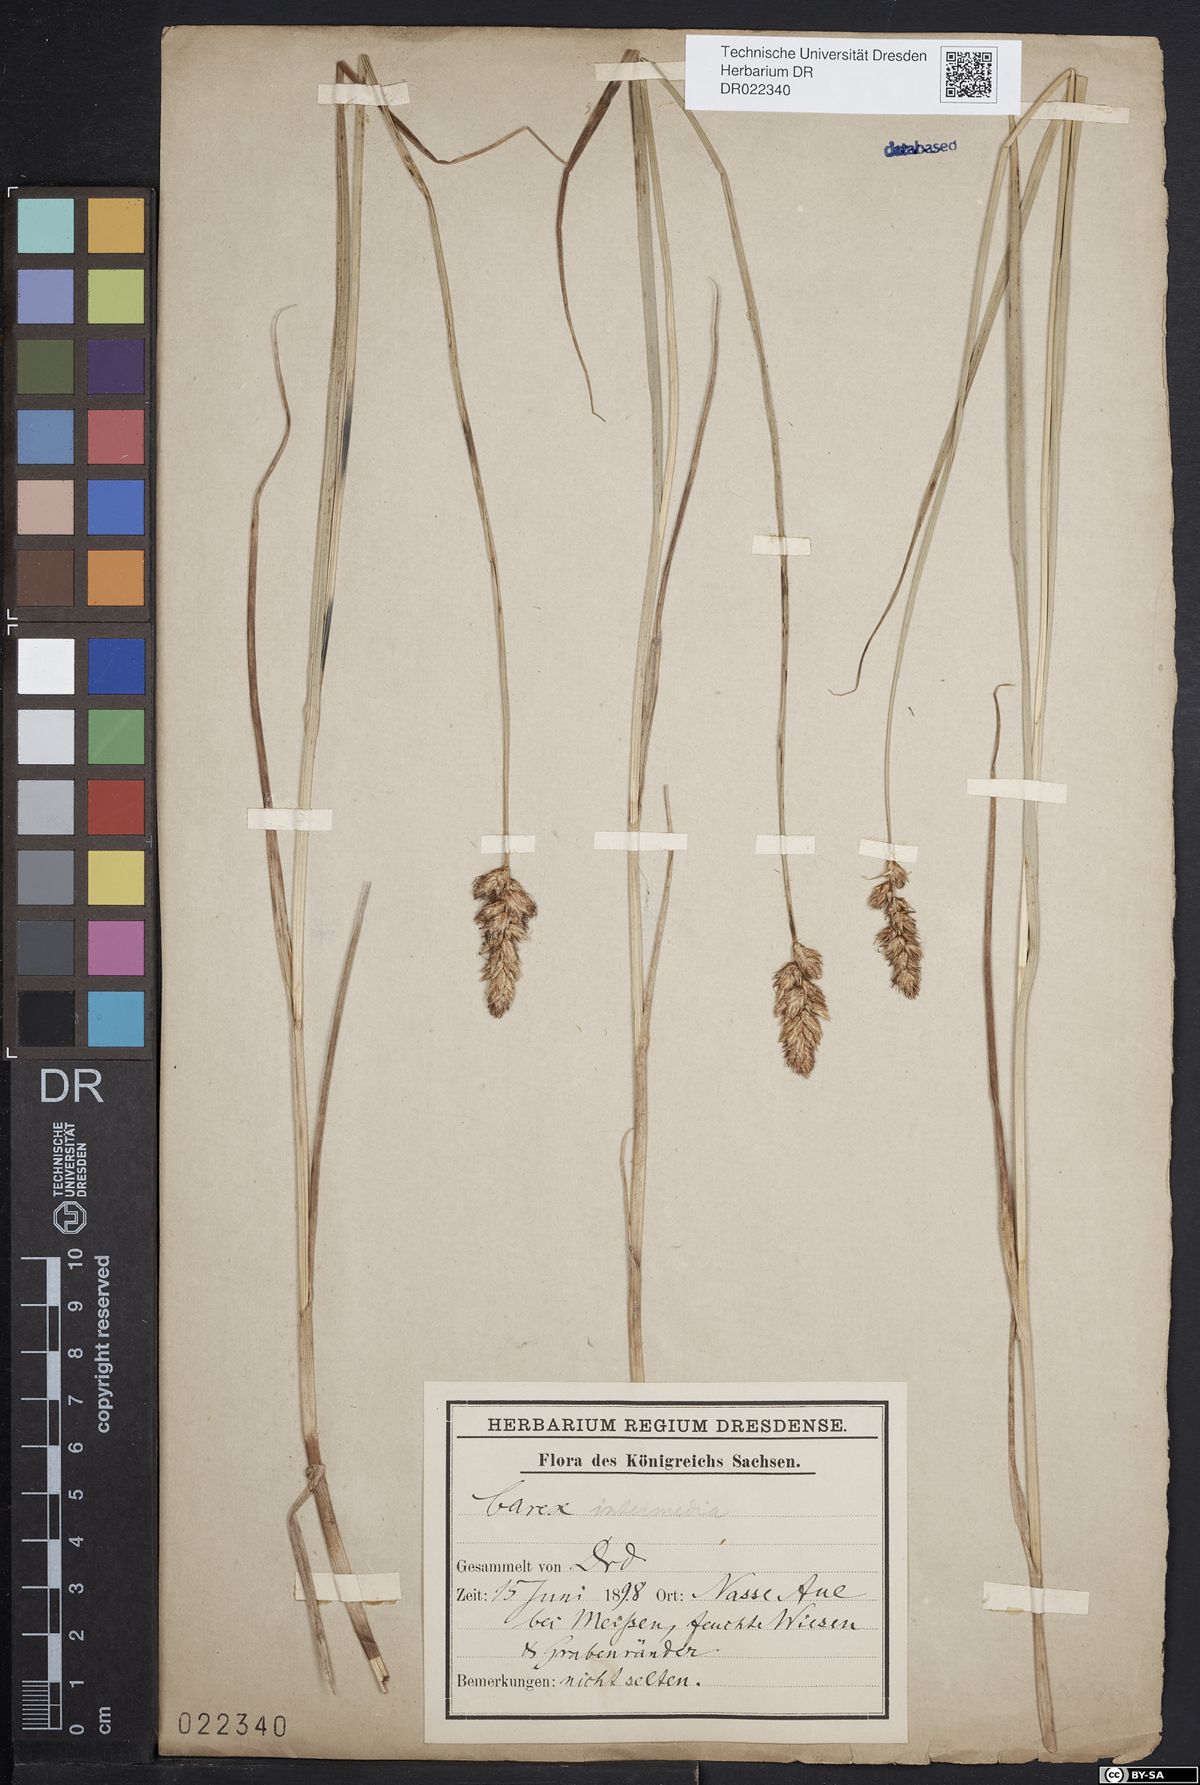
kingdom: Plantae
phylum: Tracheophyta
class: Liliopsida
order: Poales
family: Cyperaceae
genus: Carex
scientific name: Carex disticha
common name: Brown sedge
